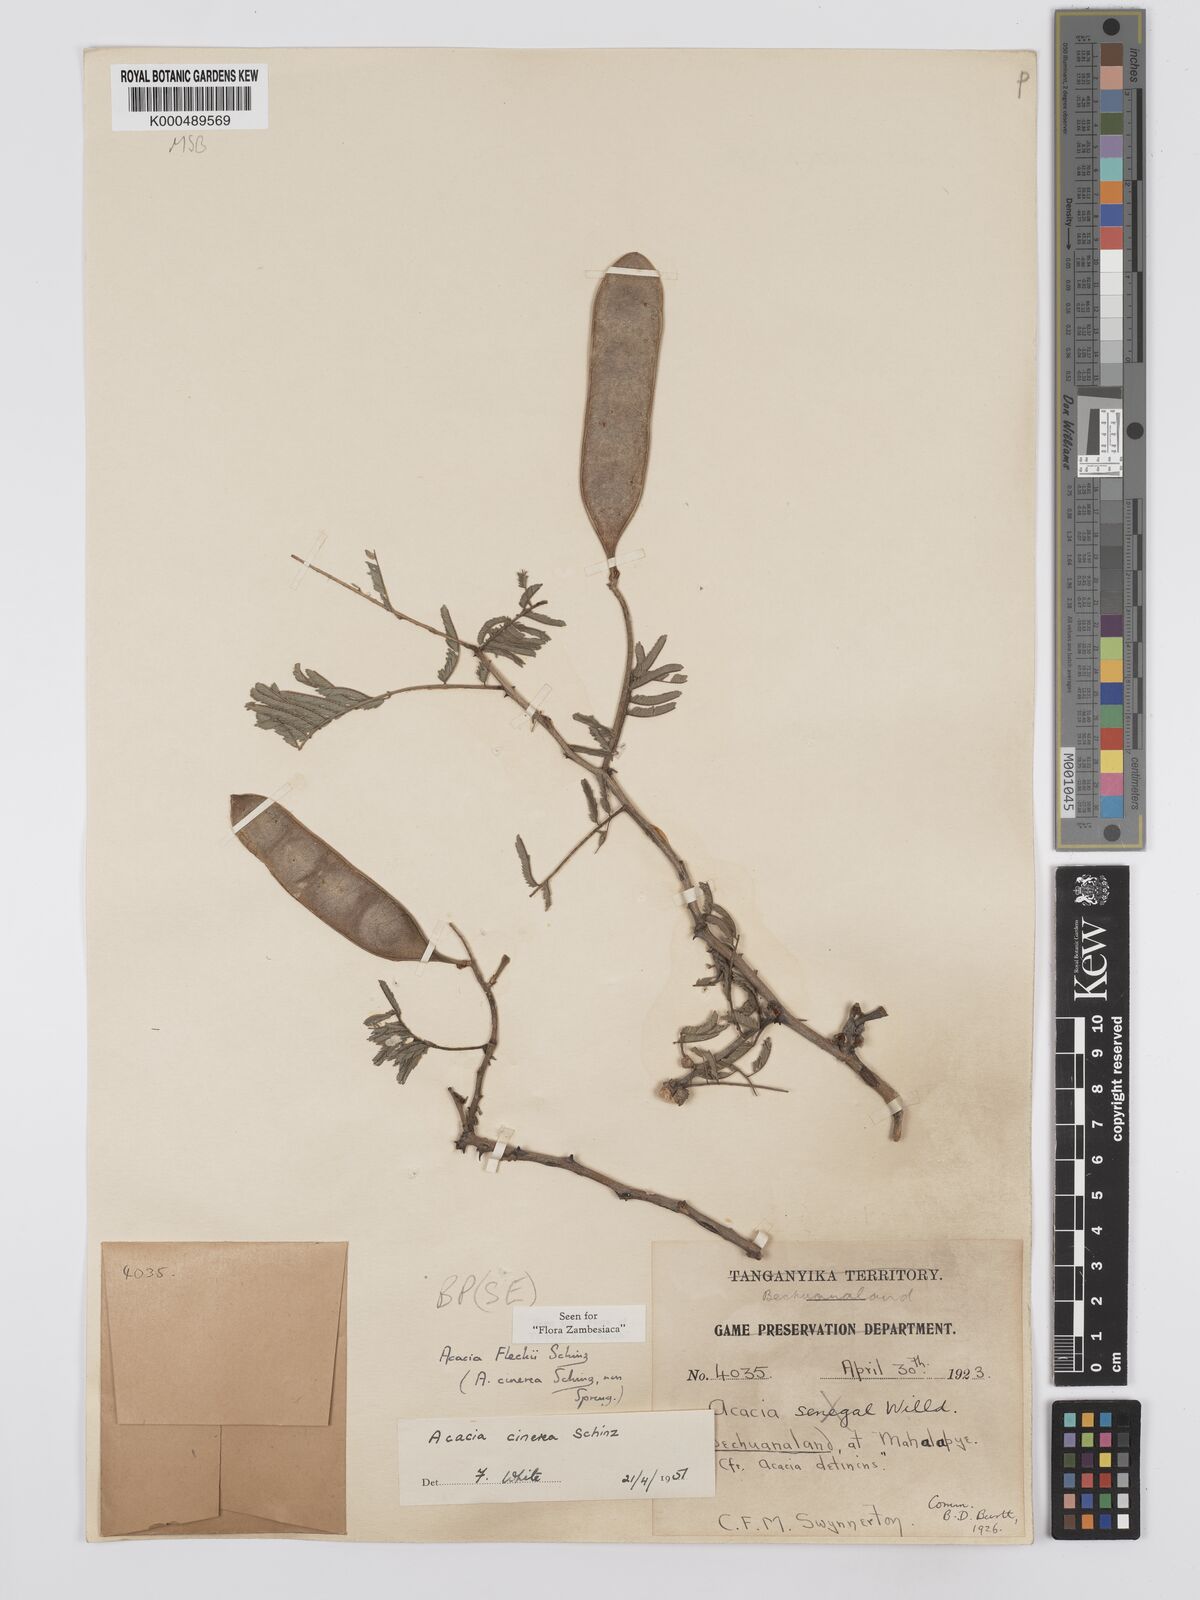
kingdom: Plantae
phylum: Tracheophyta
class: Magnoliopsida
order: Fabales
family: Fabaceae
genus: Senegalia
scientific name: Senegalia fleckii
